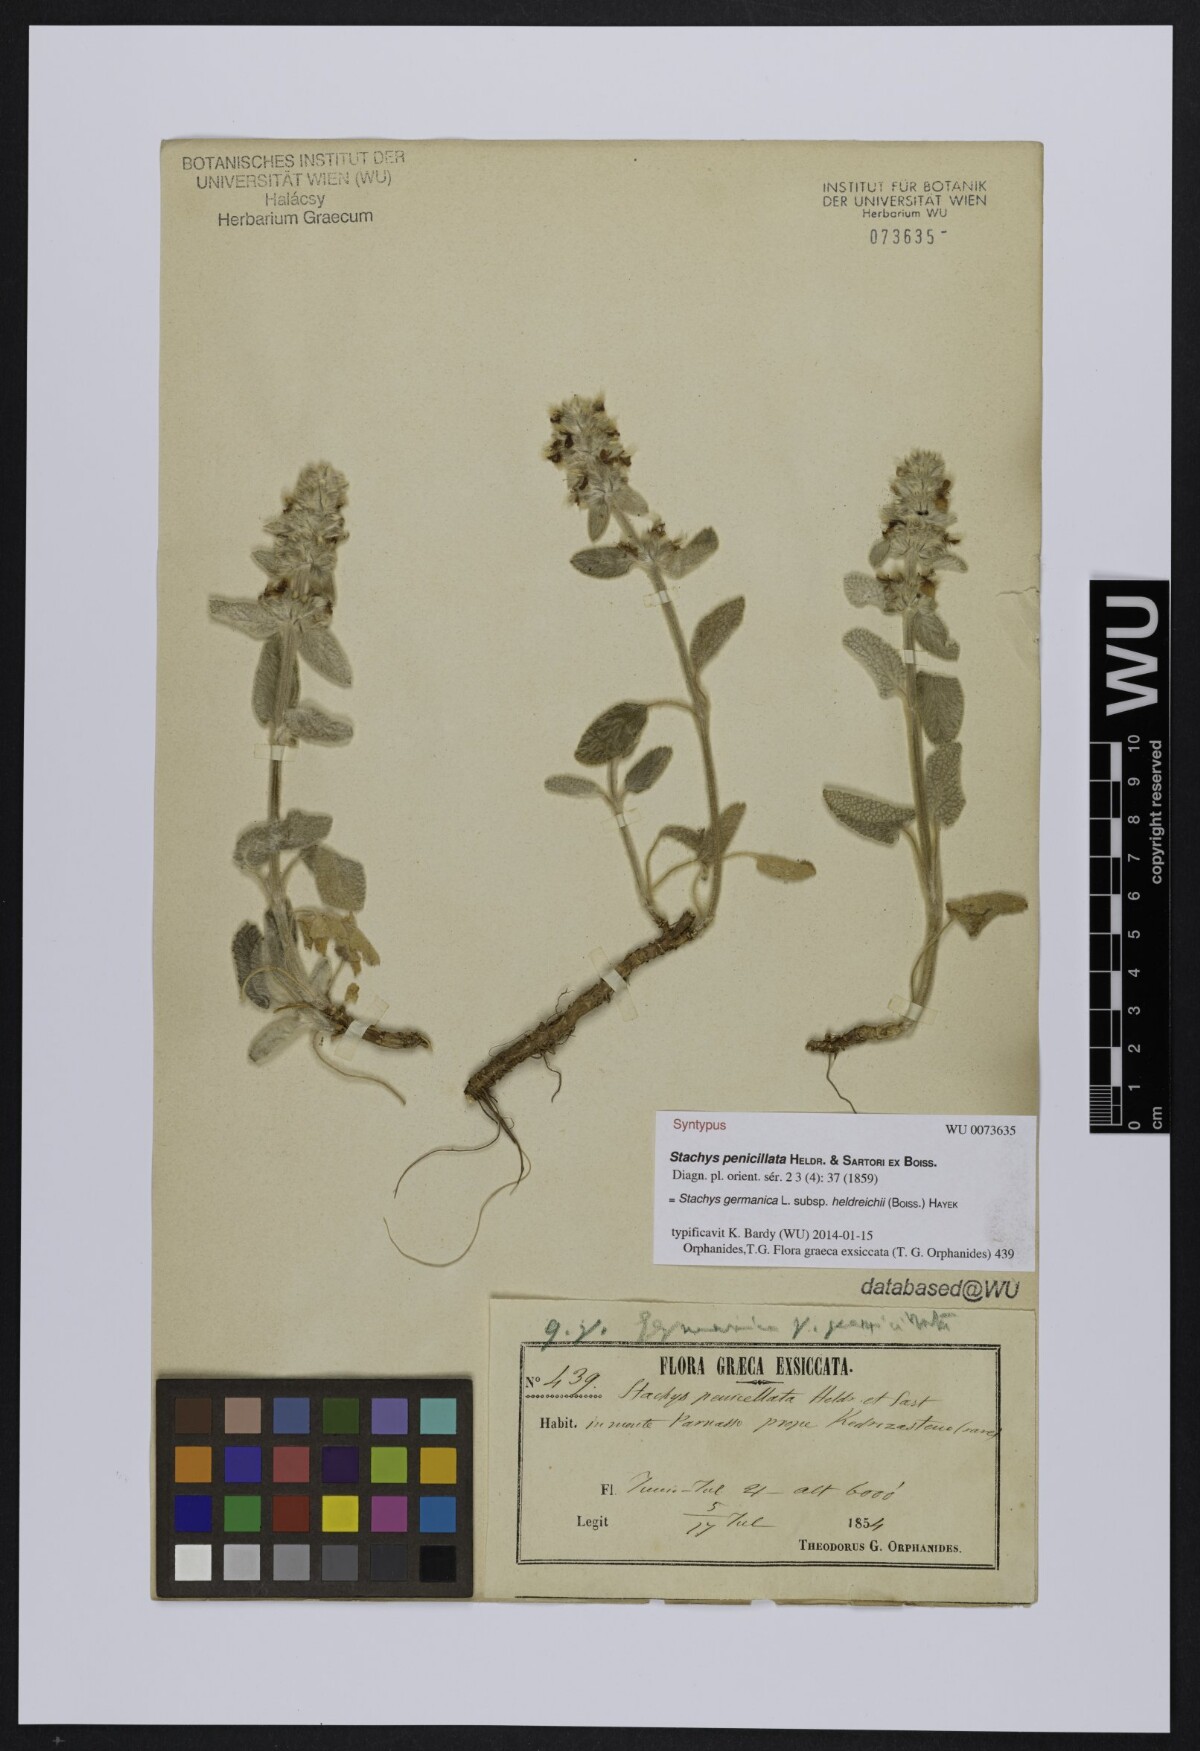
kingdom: Plantae
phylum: Tracheophyta
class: Magnoliopsida
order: Lamiales
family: Lamiaceae
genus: Stachys
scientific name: Stachys germanica
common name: Downy woundwort
